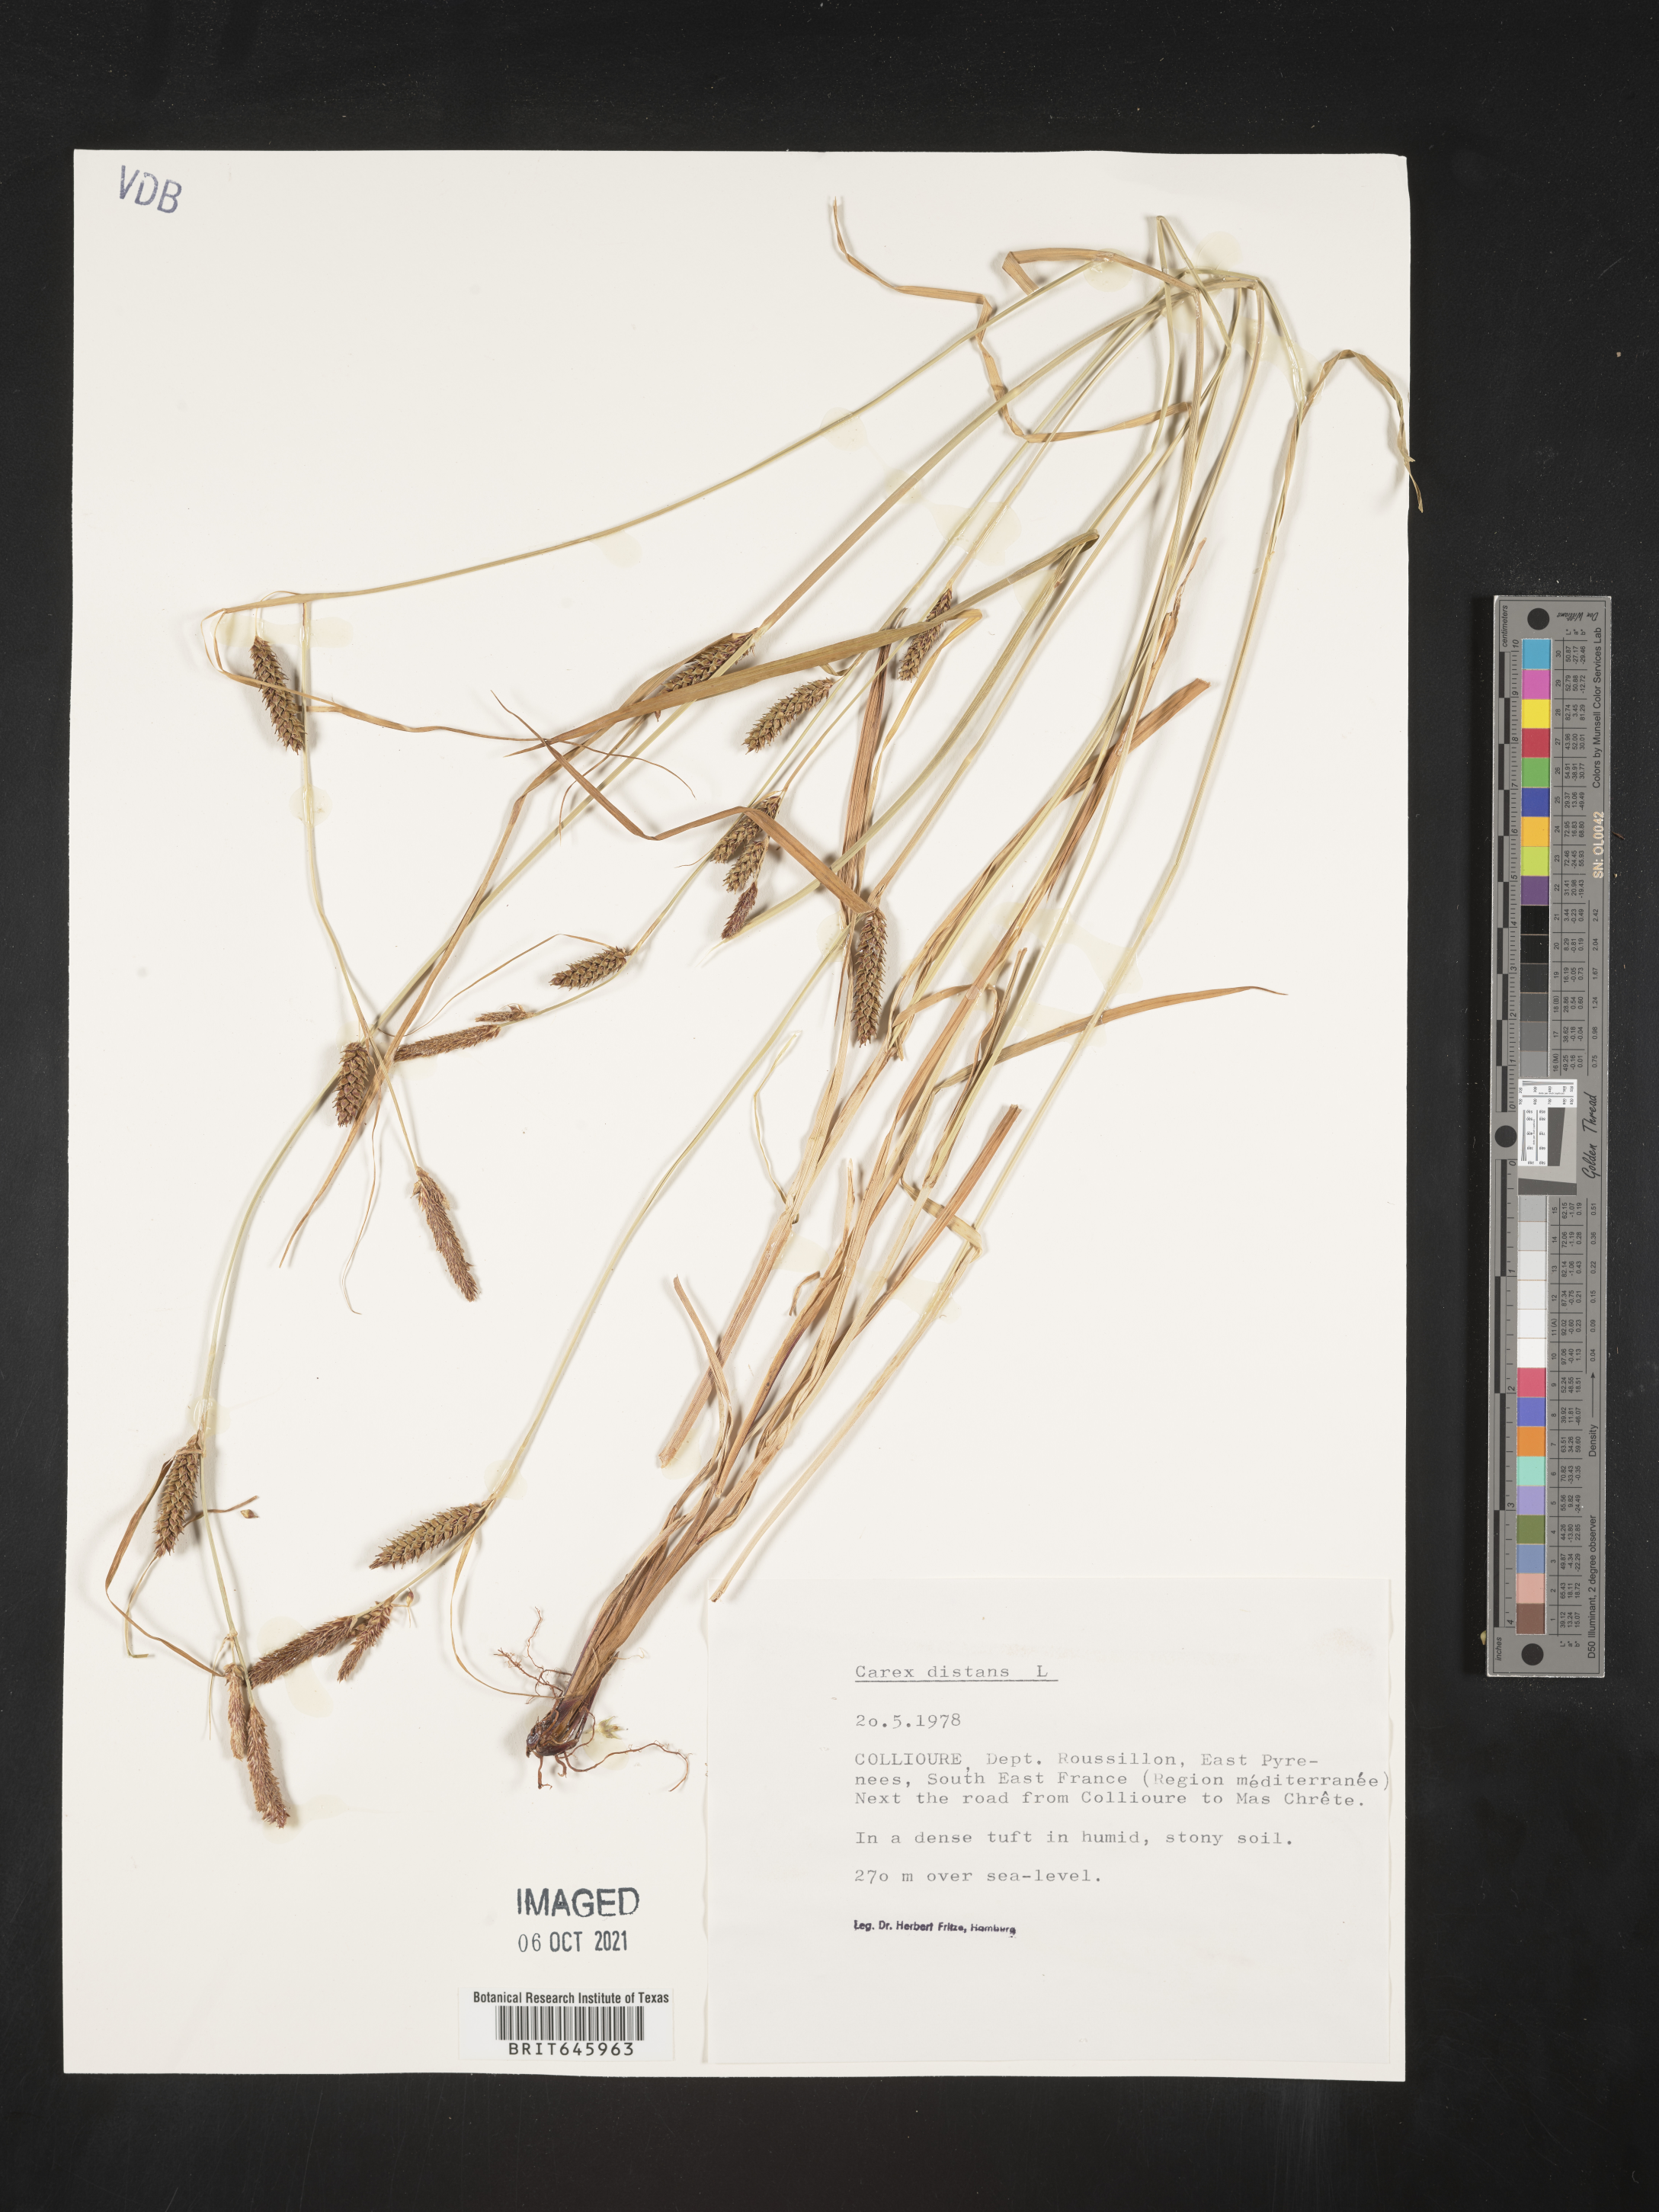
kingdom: Plantae
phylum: Tracheophyta
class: Liliopsida
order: Poales
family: Cyperaceae
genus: Carex
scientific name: Carex distans
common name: Distant sedge
